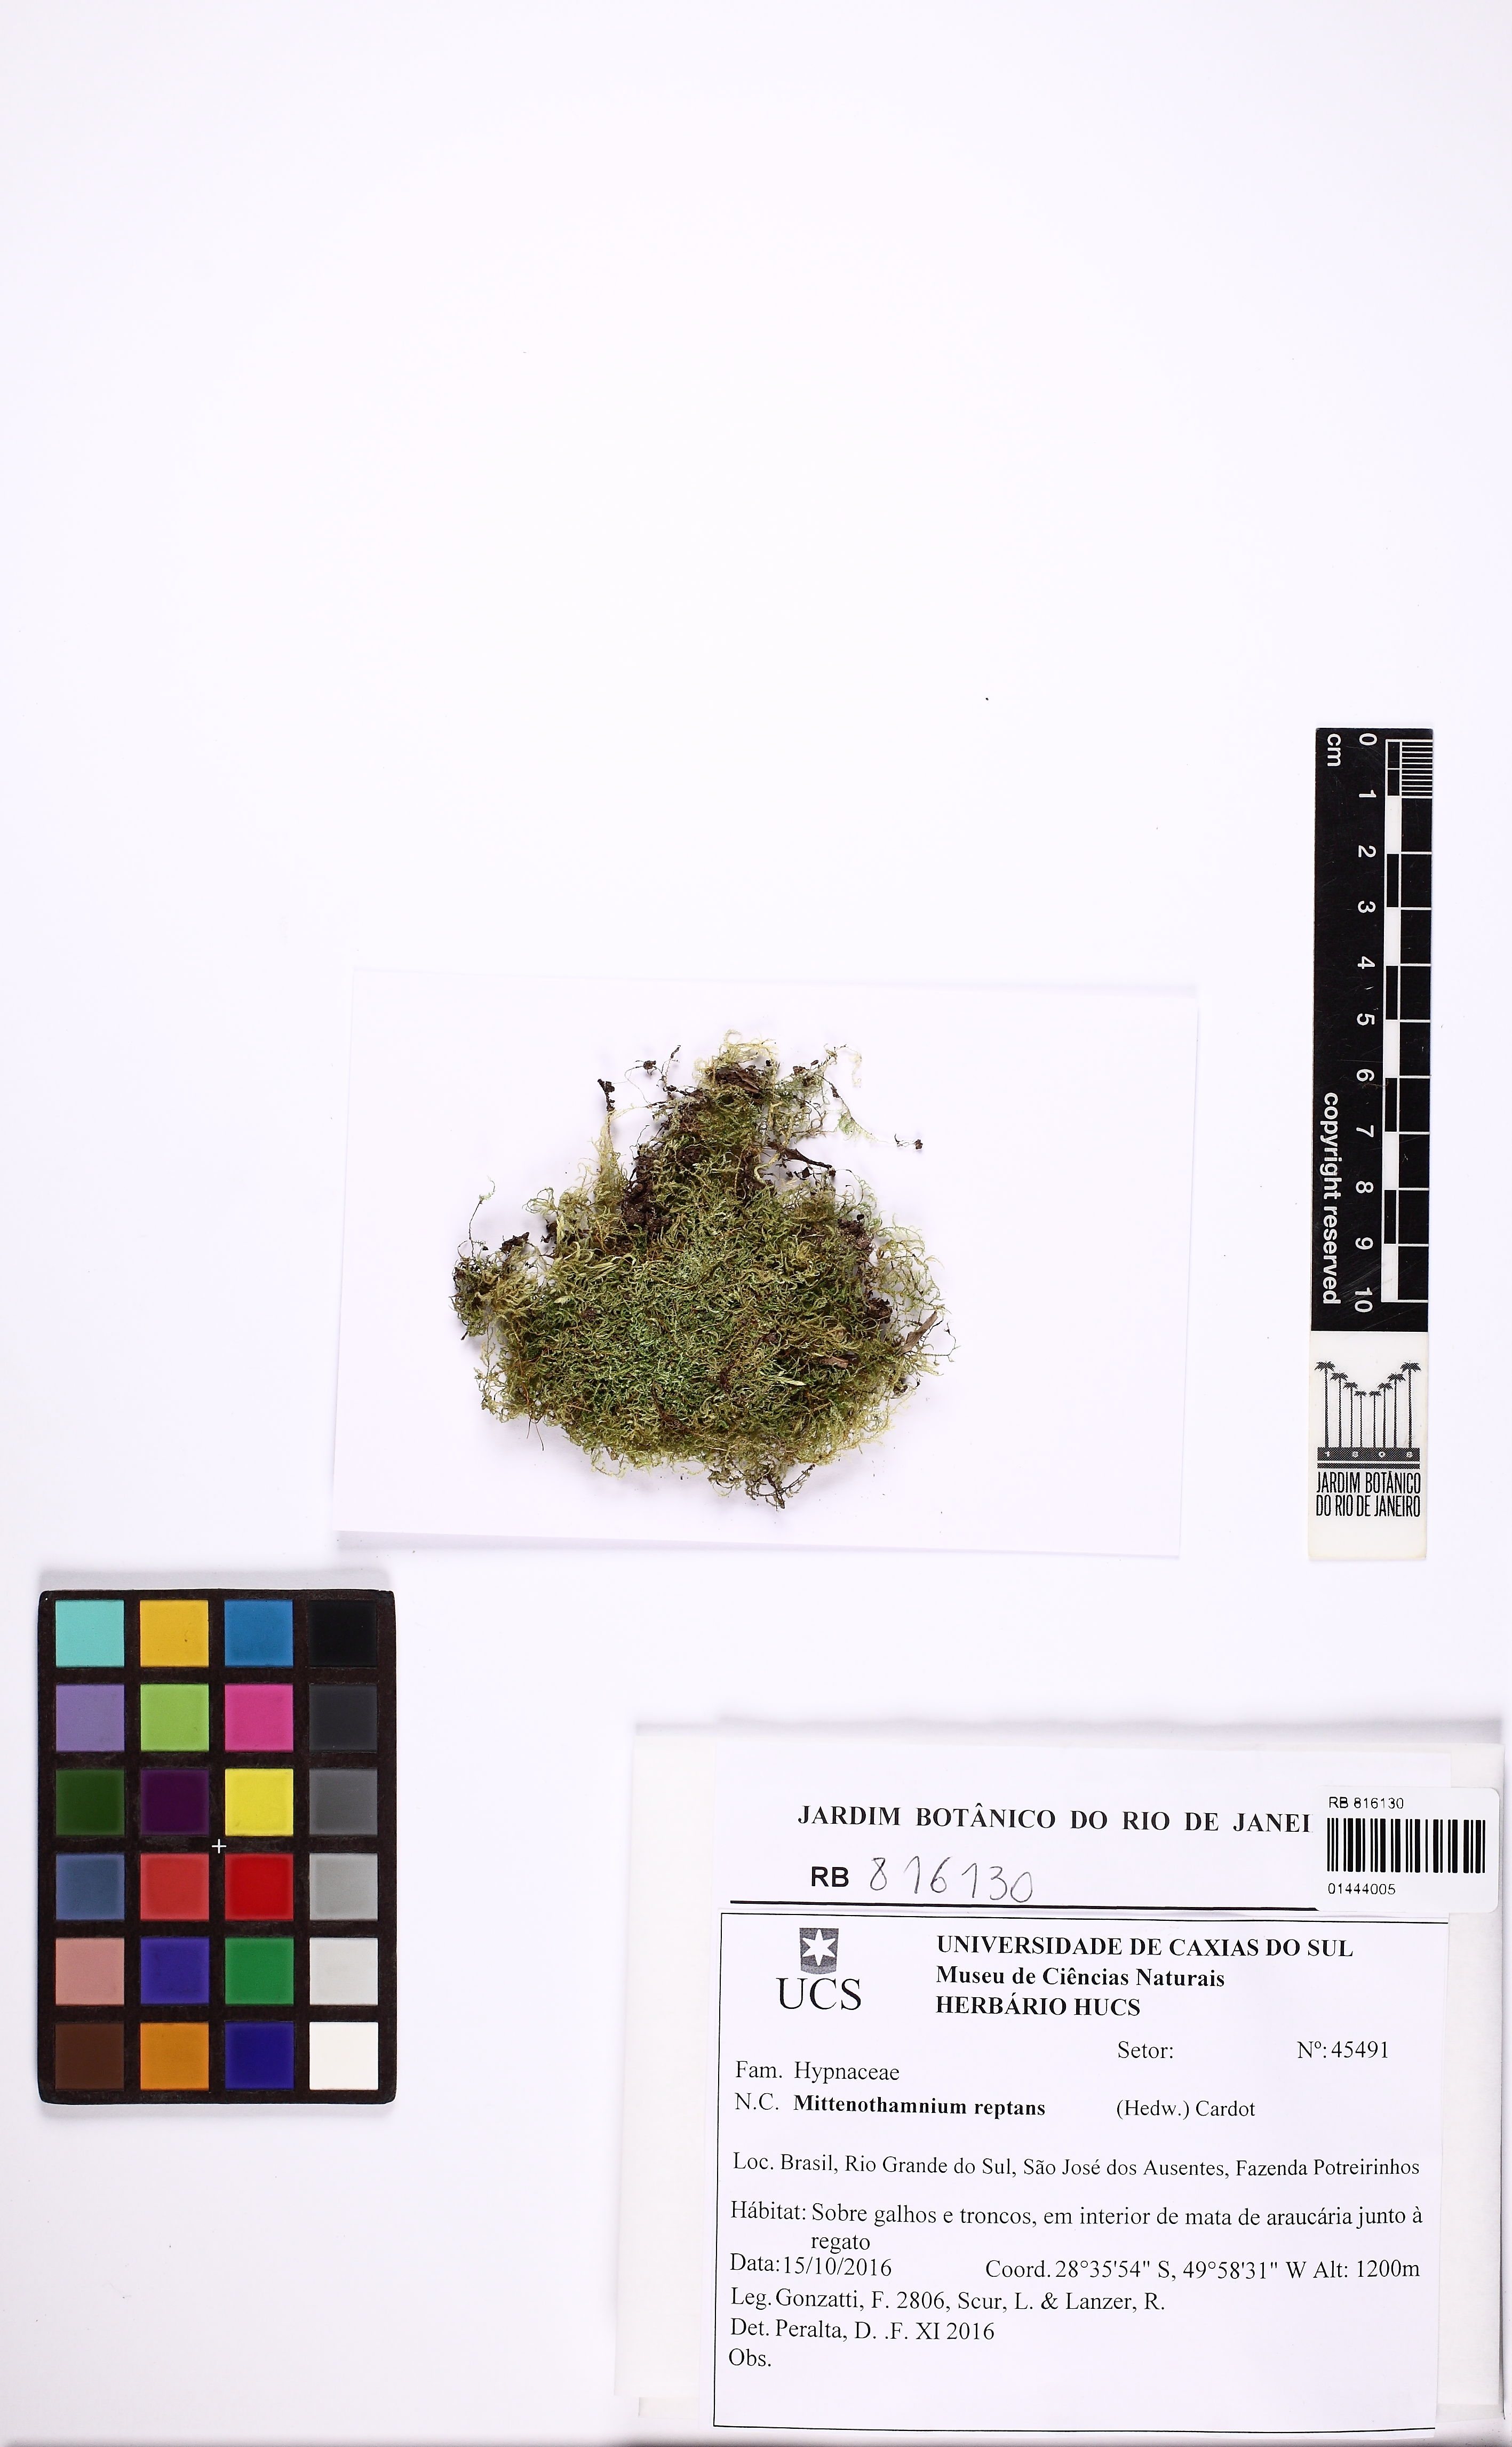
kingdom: Plantae
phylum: Bryophyta
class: Bryopsida
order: Hypnales
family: Hypnaceae
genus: Mittenothamnium
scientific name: Mittenothamnium reptans
